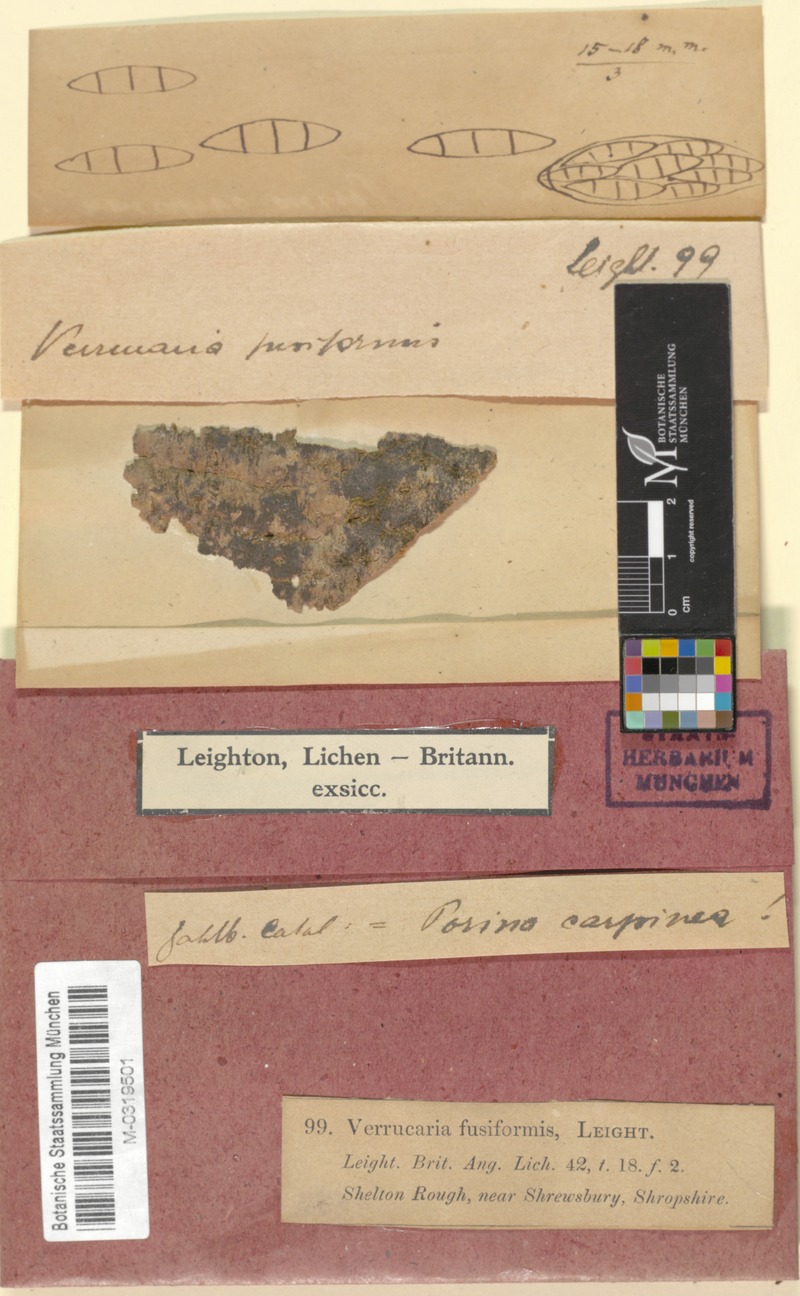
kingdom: Fungi
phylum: Ascomycota
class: Eurotiomycetes
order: Verrucariales
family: Verrucariaceae
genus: Verrucaria
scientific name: Verrucaria fusiformis
